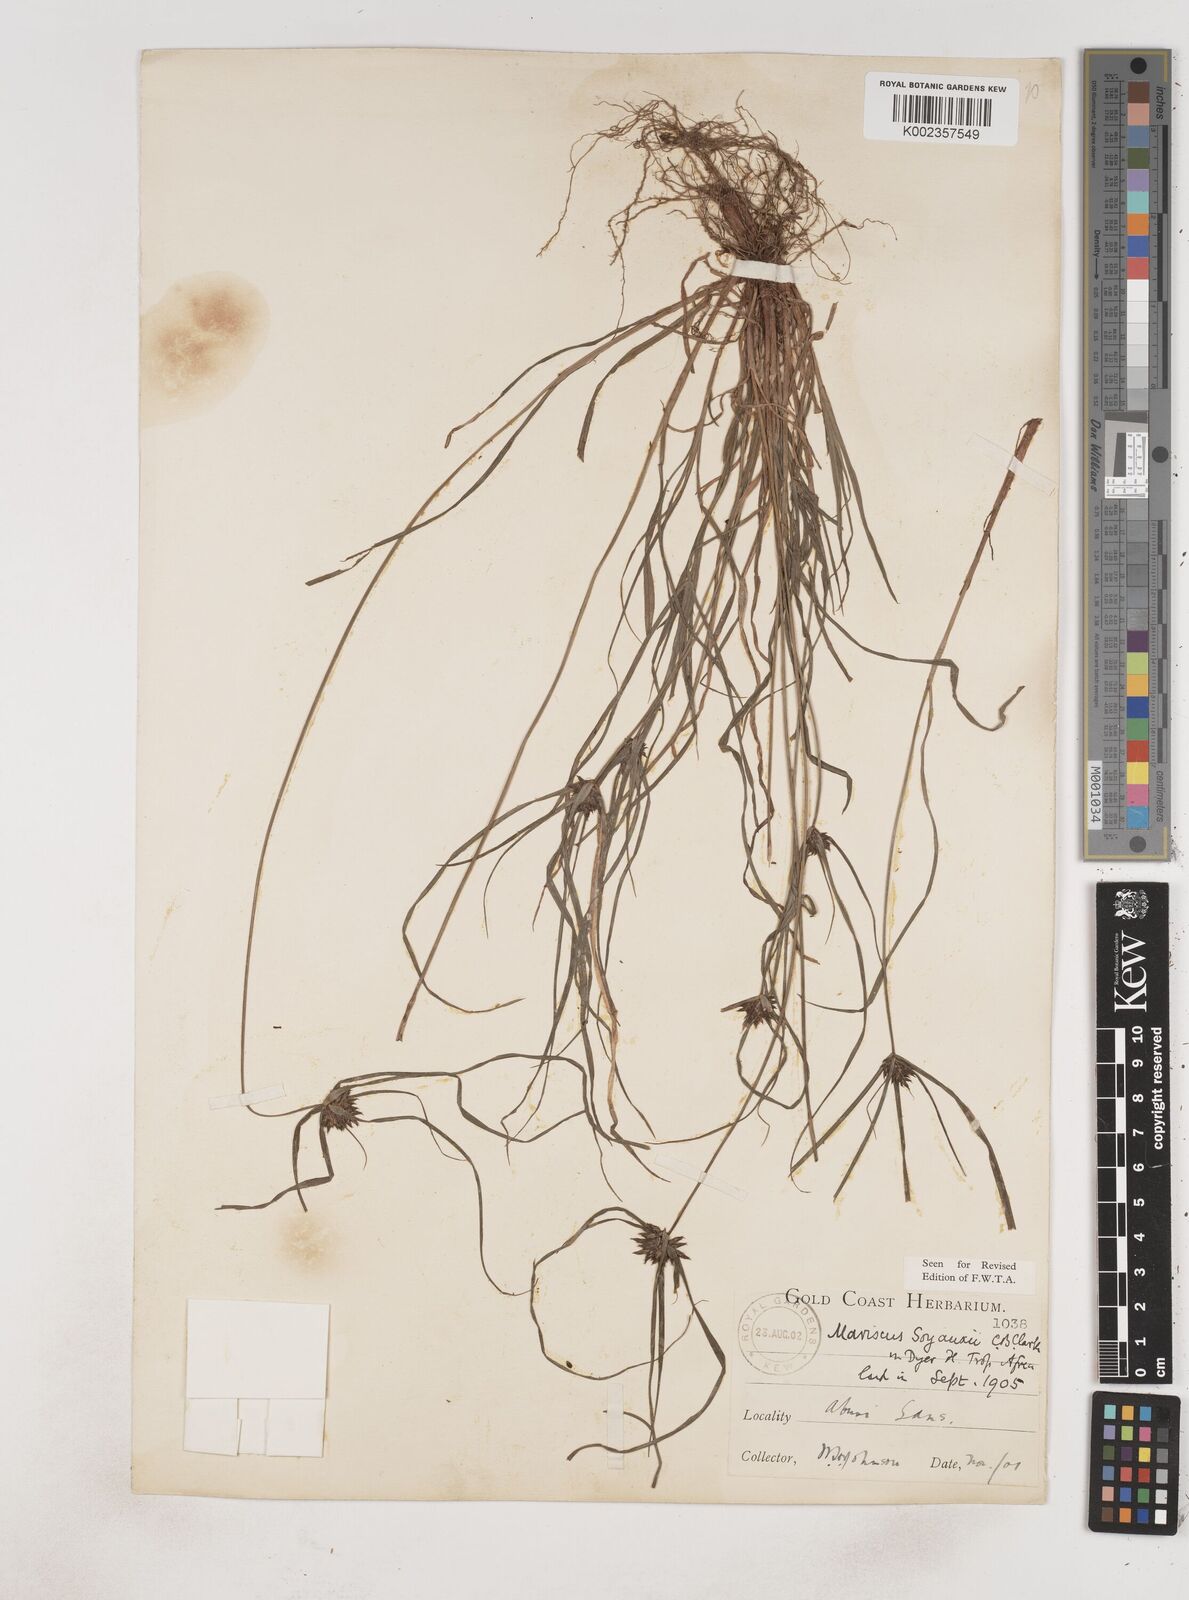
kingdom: Plantae
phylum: Tracheophyta
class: Liliopsida
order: Poales
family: Cyperaceae
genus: Cyperus
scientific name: Cyperus soyauxii
